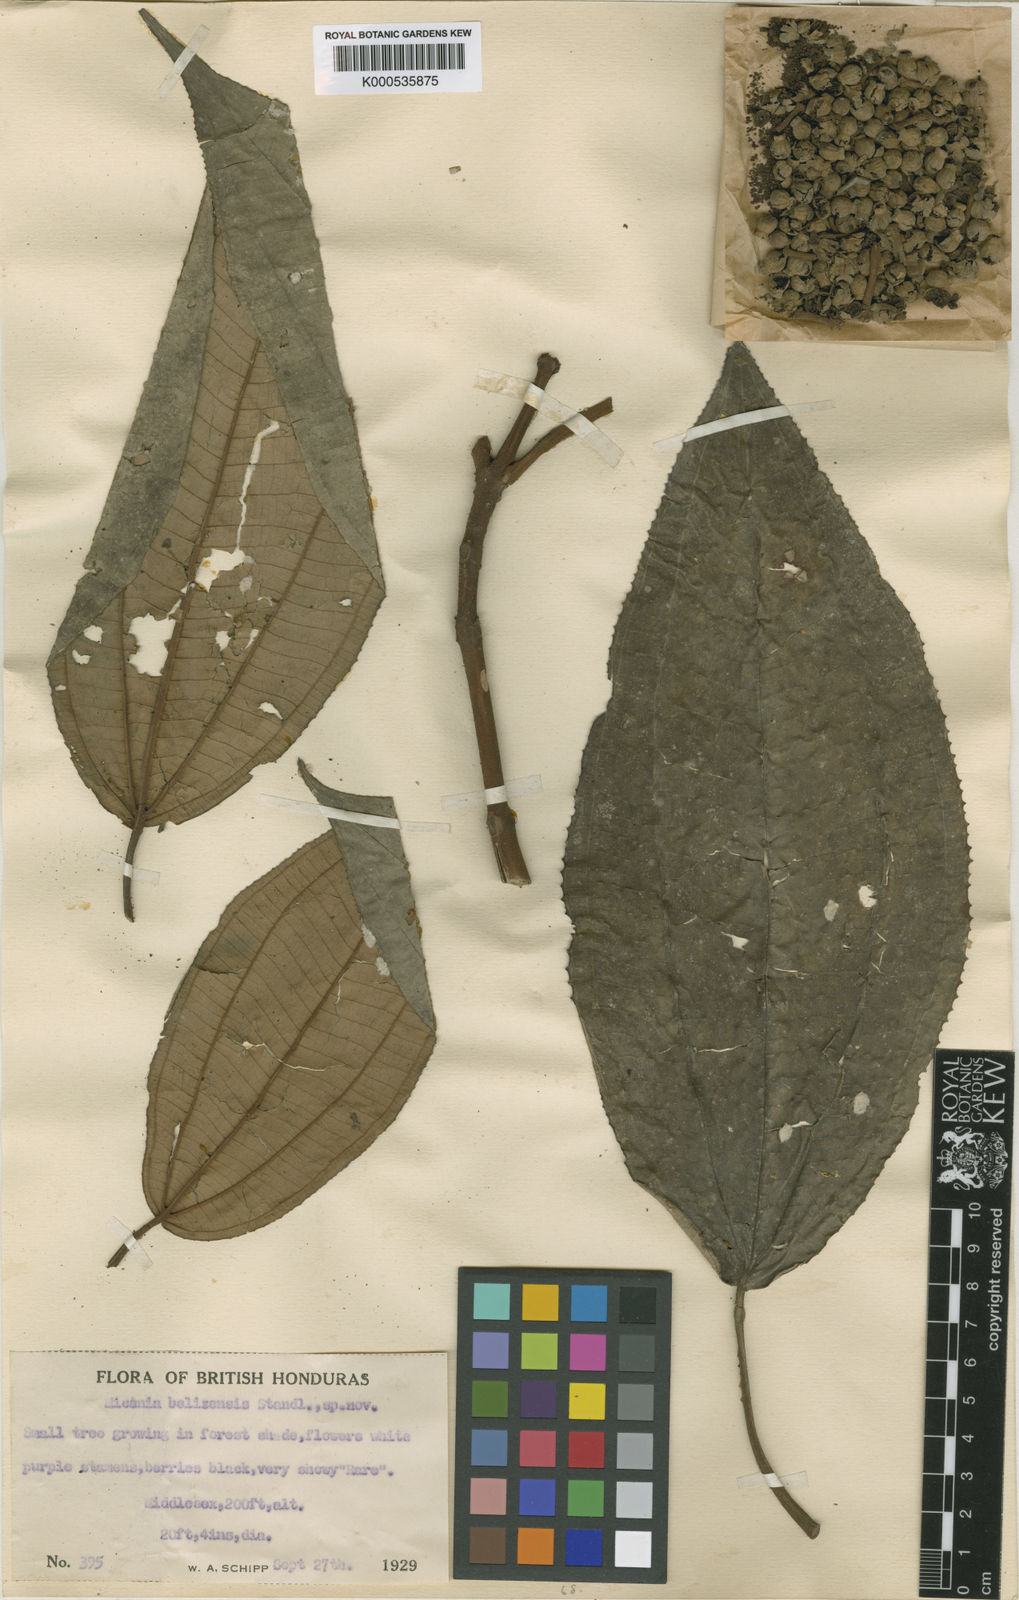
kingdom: Plantae
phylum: Tracheophyta
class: Magnoliopsida
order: Myrtales
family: Melastomataceae
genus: Miconia
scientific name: Miconia bubalina
